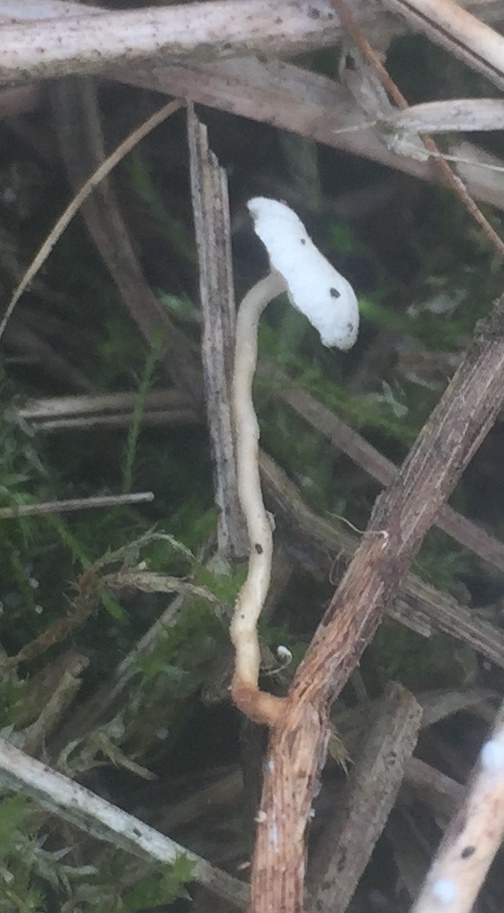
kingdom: Fungi
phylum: Basidiomycota
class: Agaricomycetes
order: Agaricales
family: Marasmiaceae
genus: Crinipellis
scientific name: Crinipellis scabella
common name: børstefod
